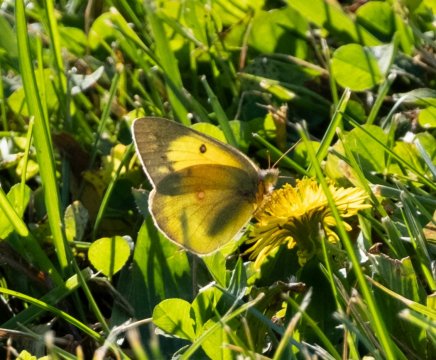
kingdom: Animalia
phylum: Arthropoda
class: Insecta
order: Lepidoptera
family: Pieridae
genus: Colias
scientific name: Colias philodice
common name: Clouded Sulphur
